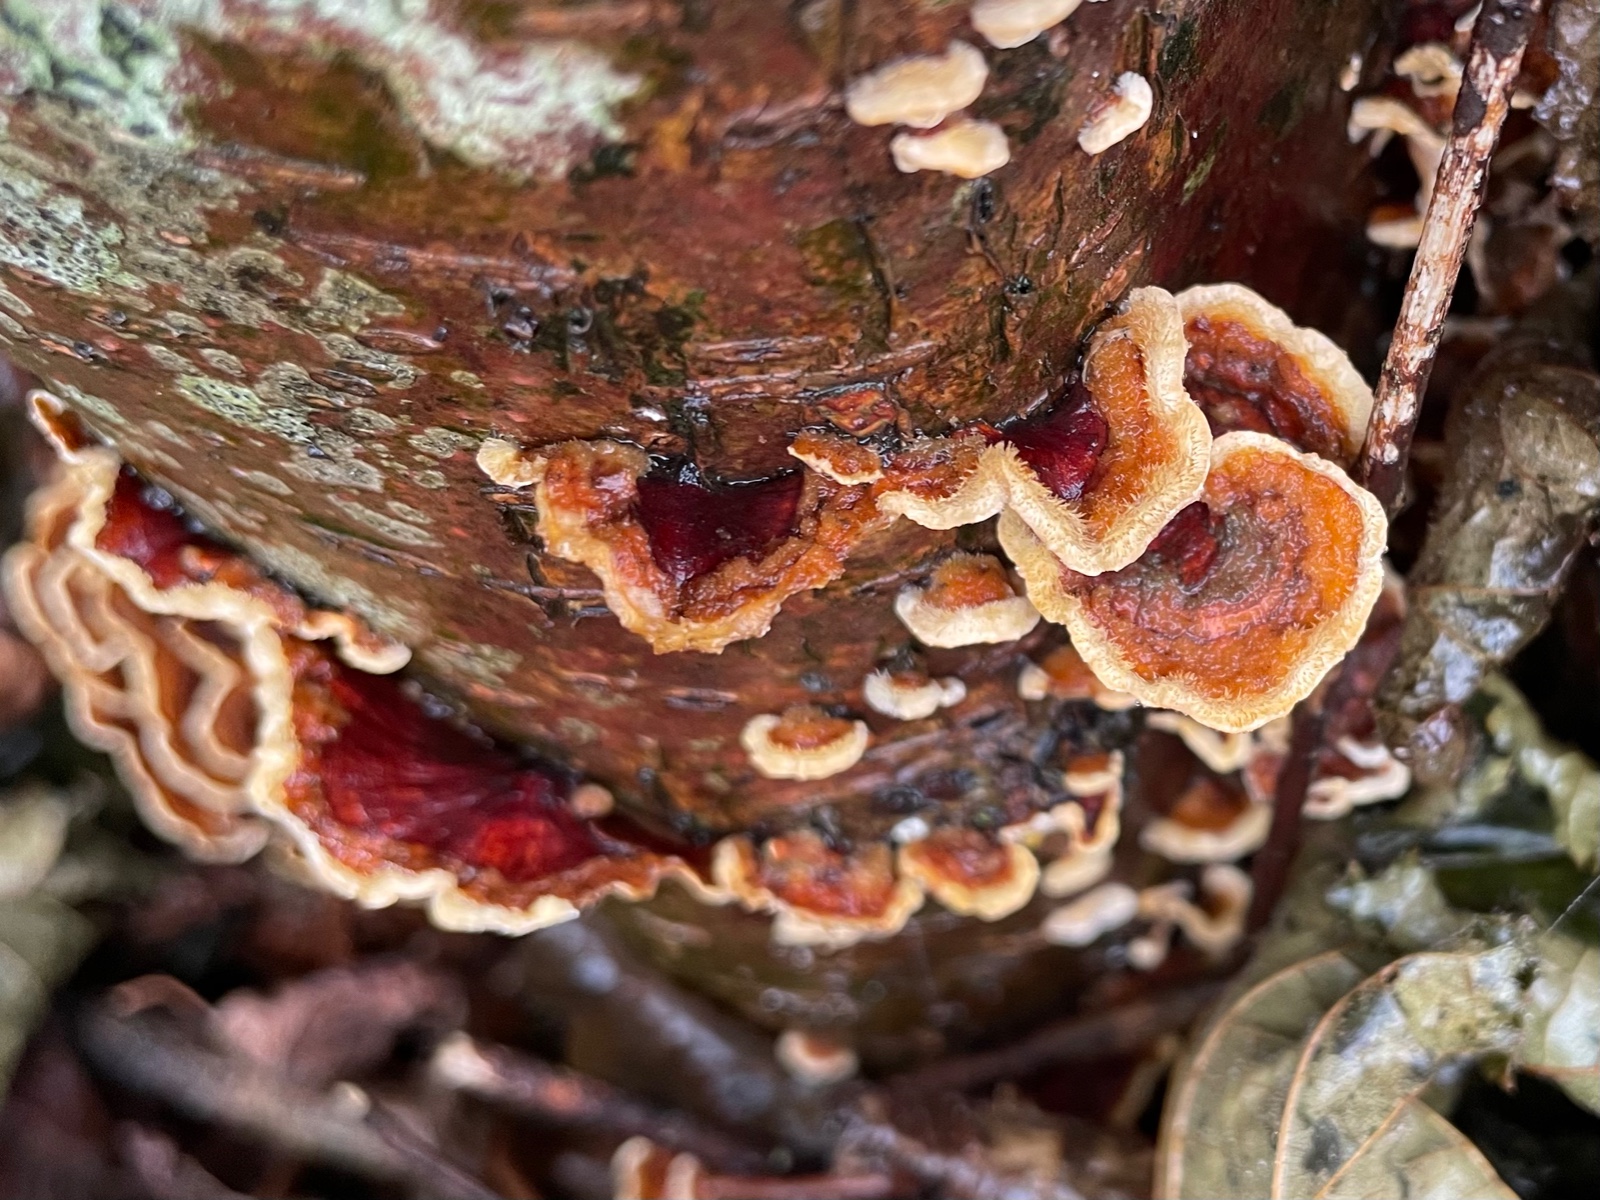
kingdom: Fungi
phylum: Basidiomycota
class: Agaricomycetes
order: Russulales
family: Stereaceae
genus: Stereum
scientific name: Stereum hirsutum
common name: håret lædersvamp
